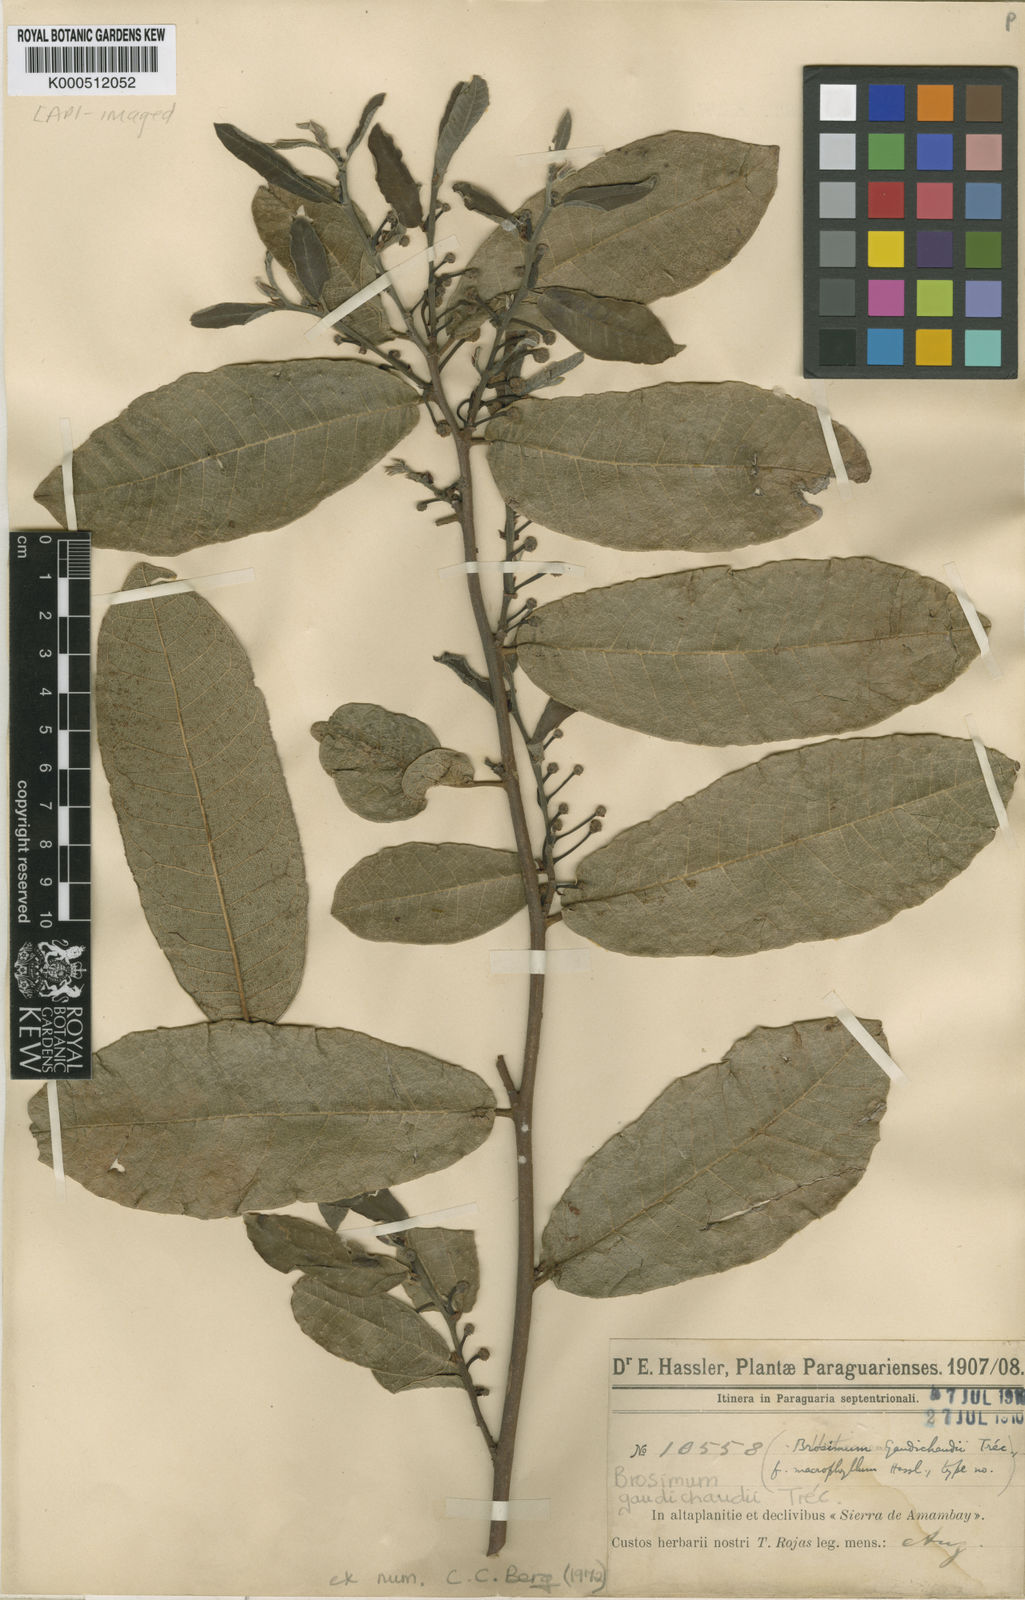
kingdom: Plantae
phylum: Tracheophyta
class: Magnoliopsida
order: Rosales
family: Moraceae
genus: Brosimum
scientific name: Brosimum
